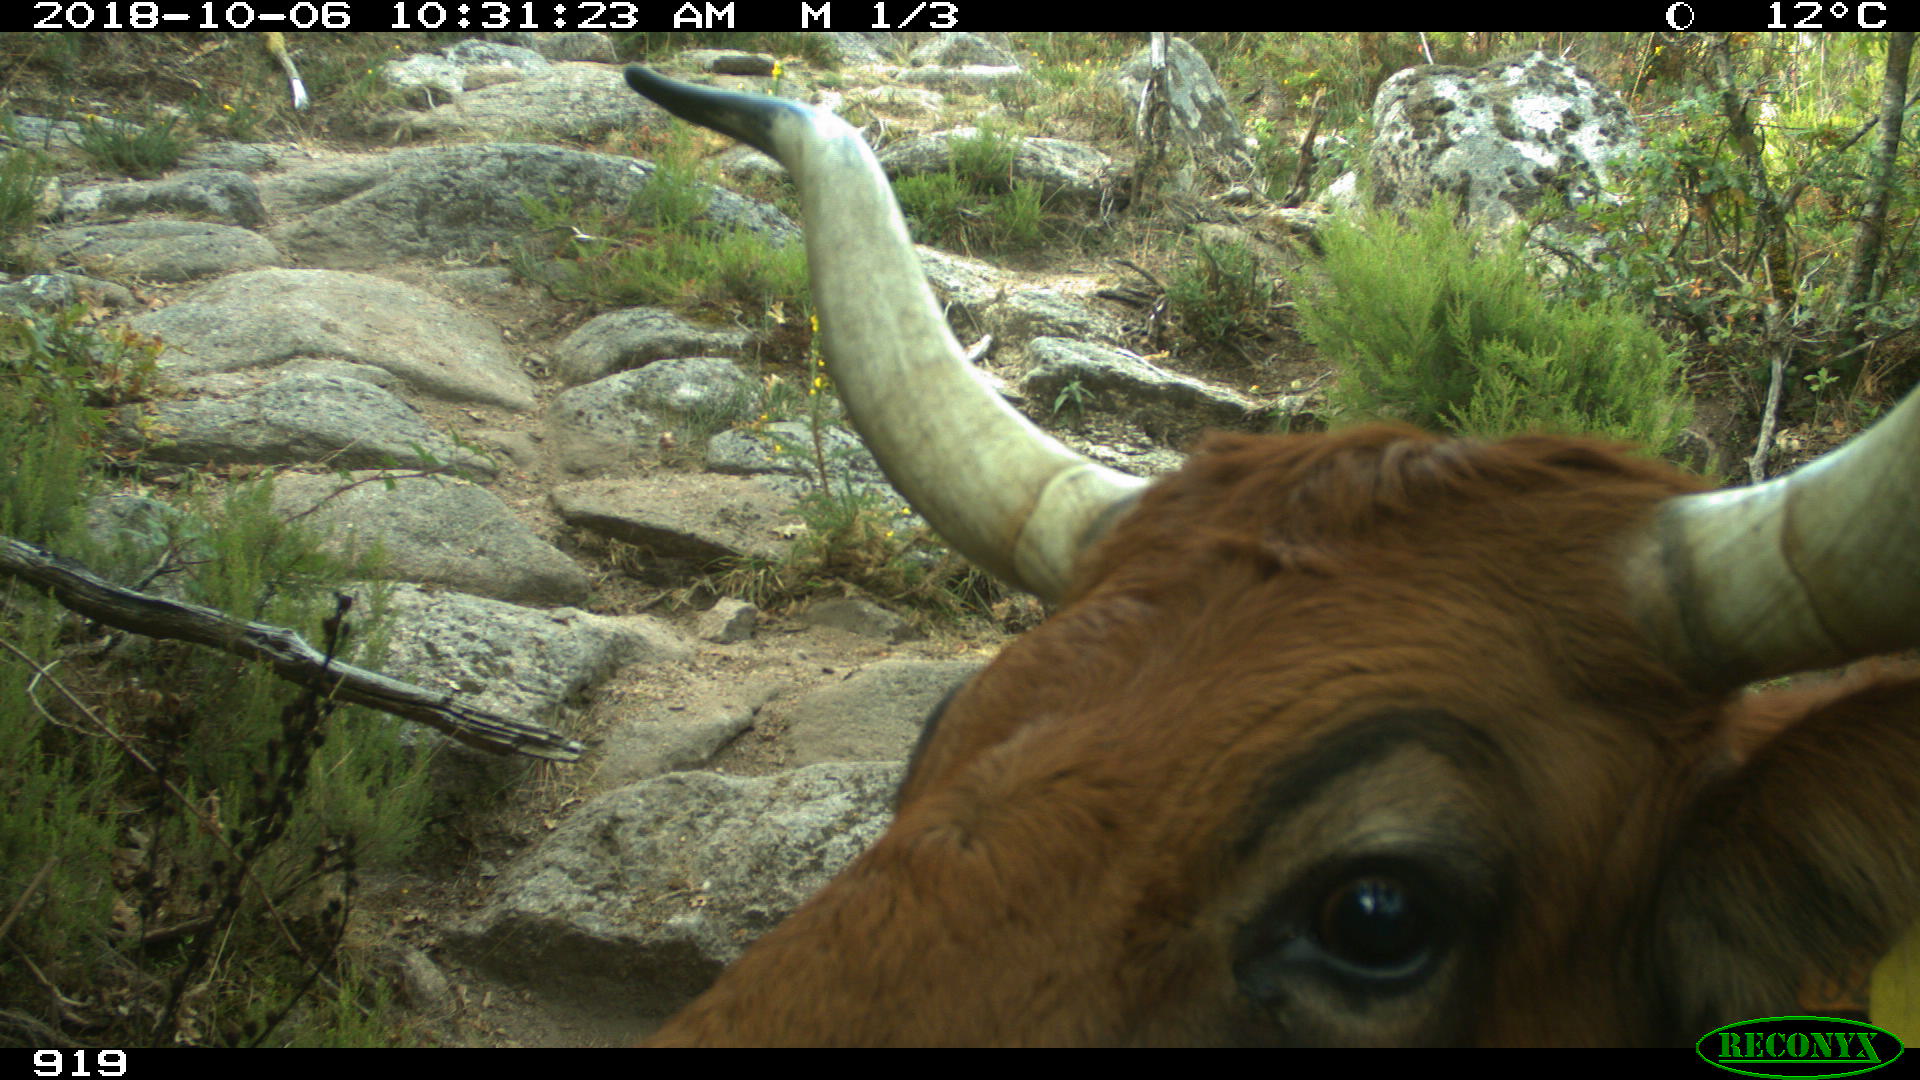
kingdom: Animalia
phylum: Chordata
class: Mammalia
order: Artiodactyla
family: Bovidae
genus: Bos
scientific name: Bos taurus
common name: Domesticated cattle
